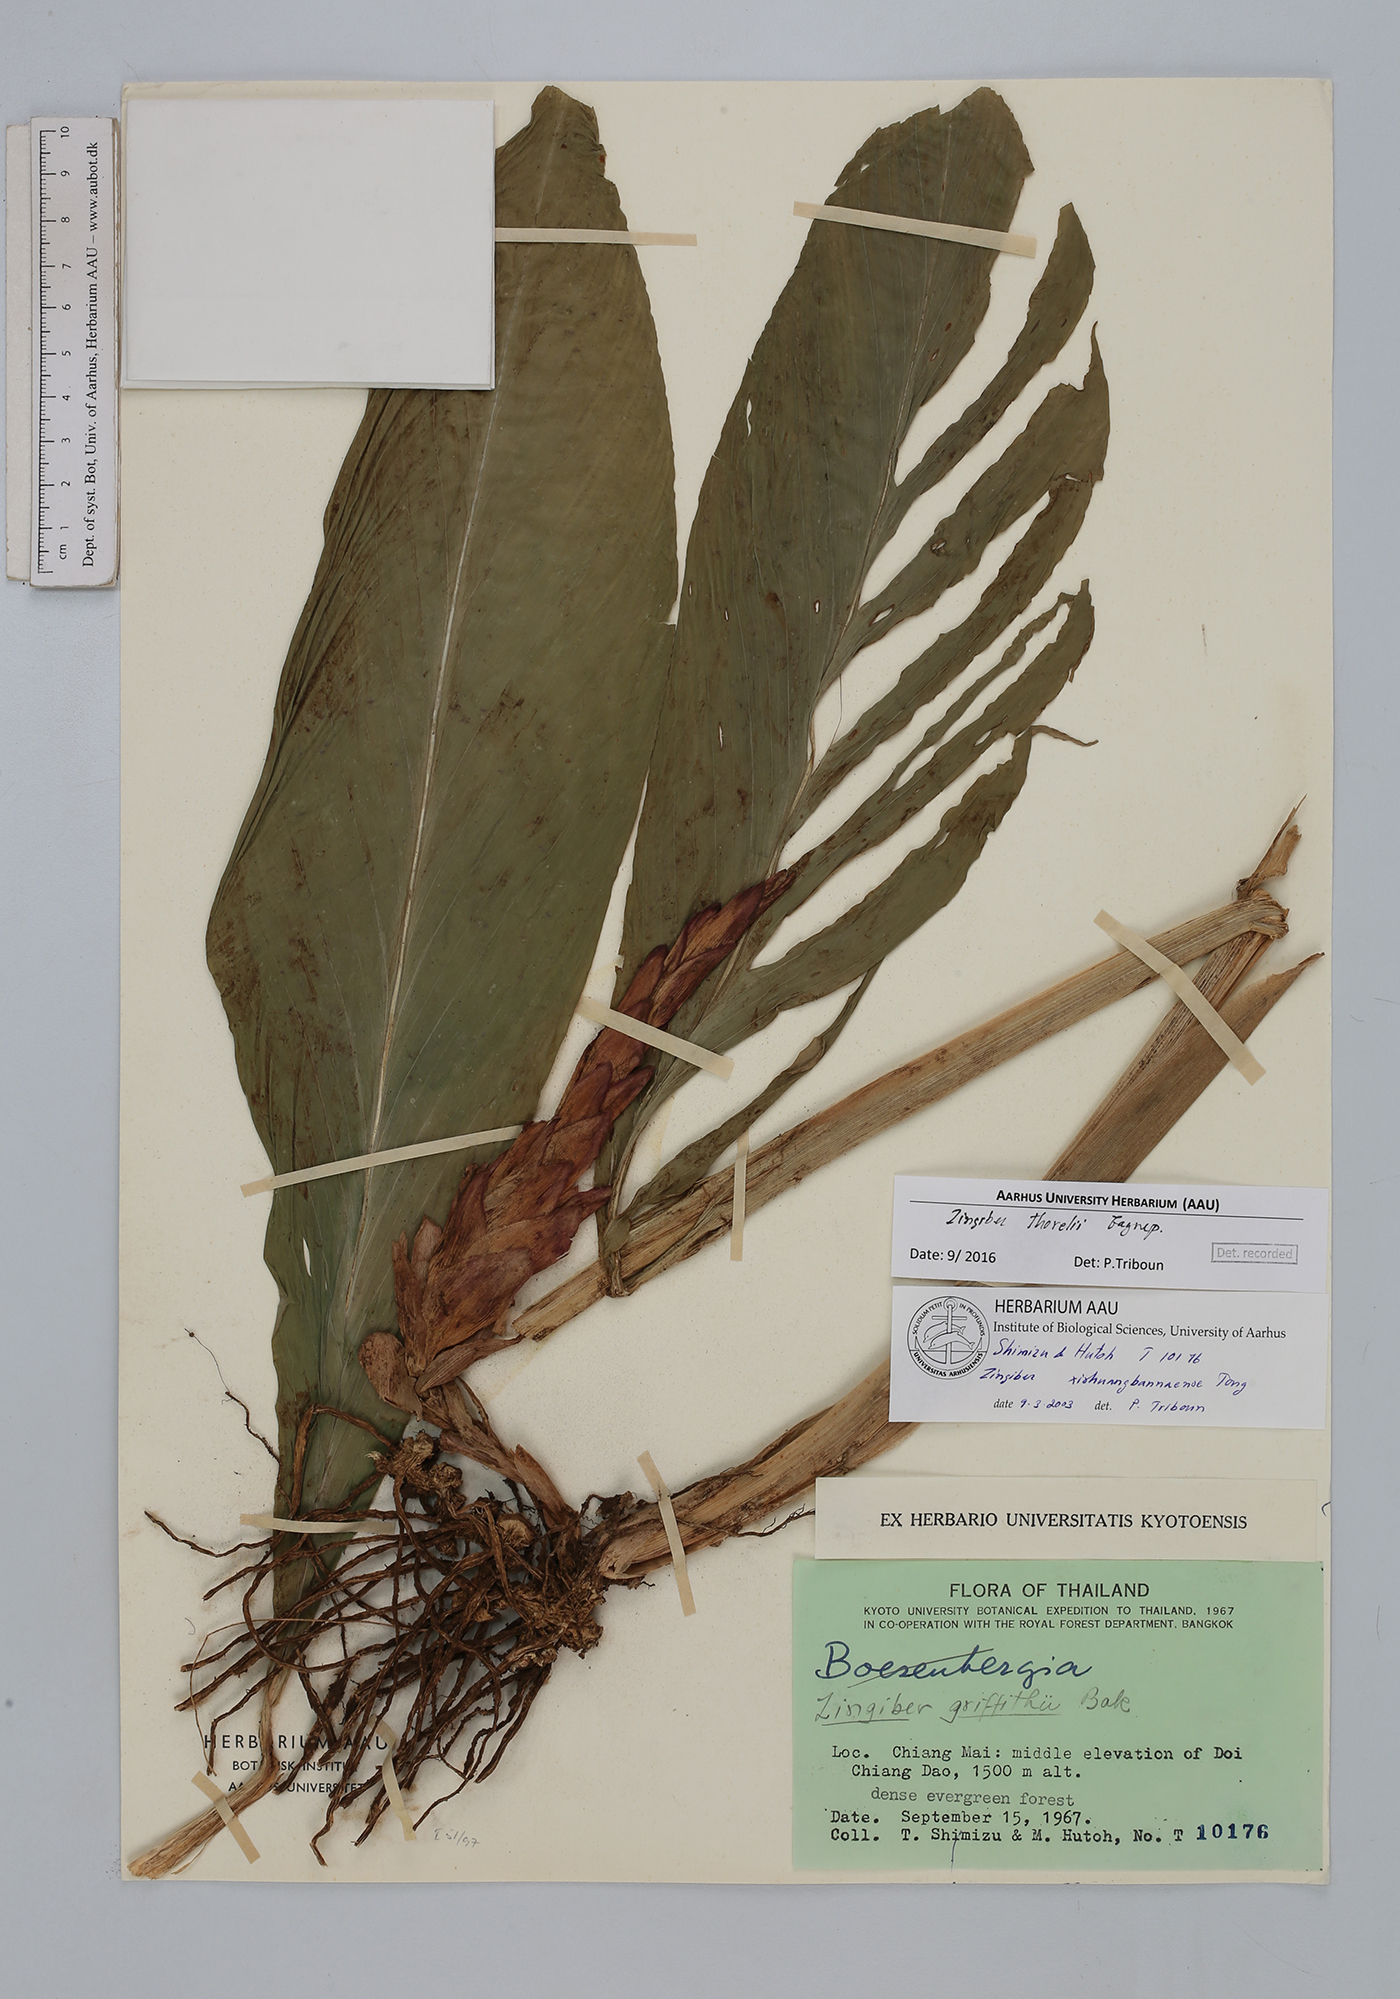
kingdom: Plantae
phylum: Tracheophyta
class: Liliopsida
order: Zingiberales
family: Zingiberaceae
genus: Zingiber
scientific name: Zingiber thorelii
